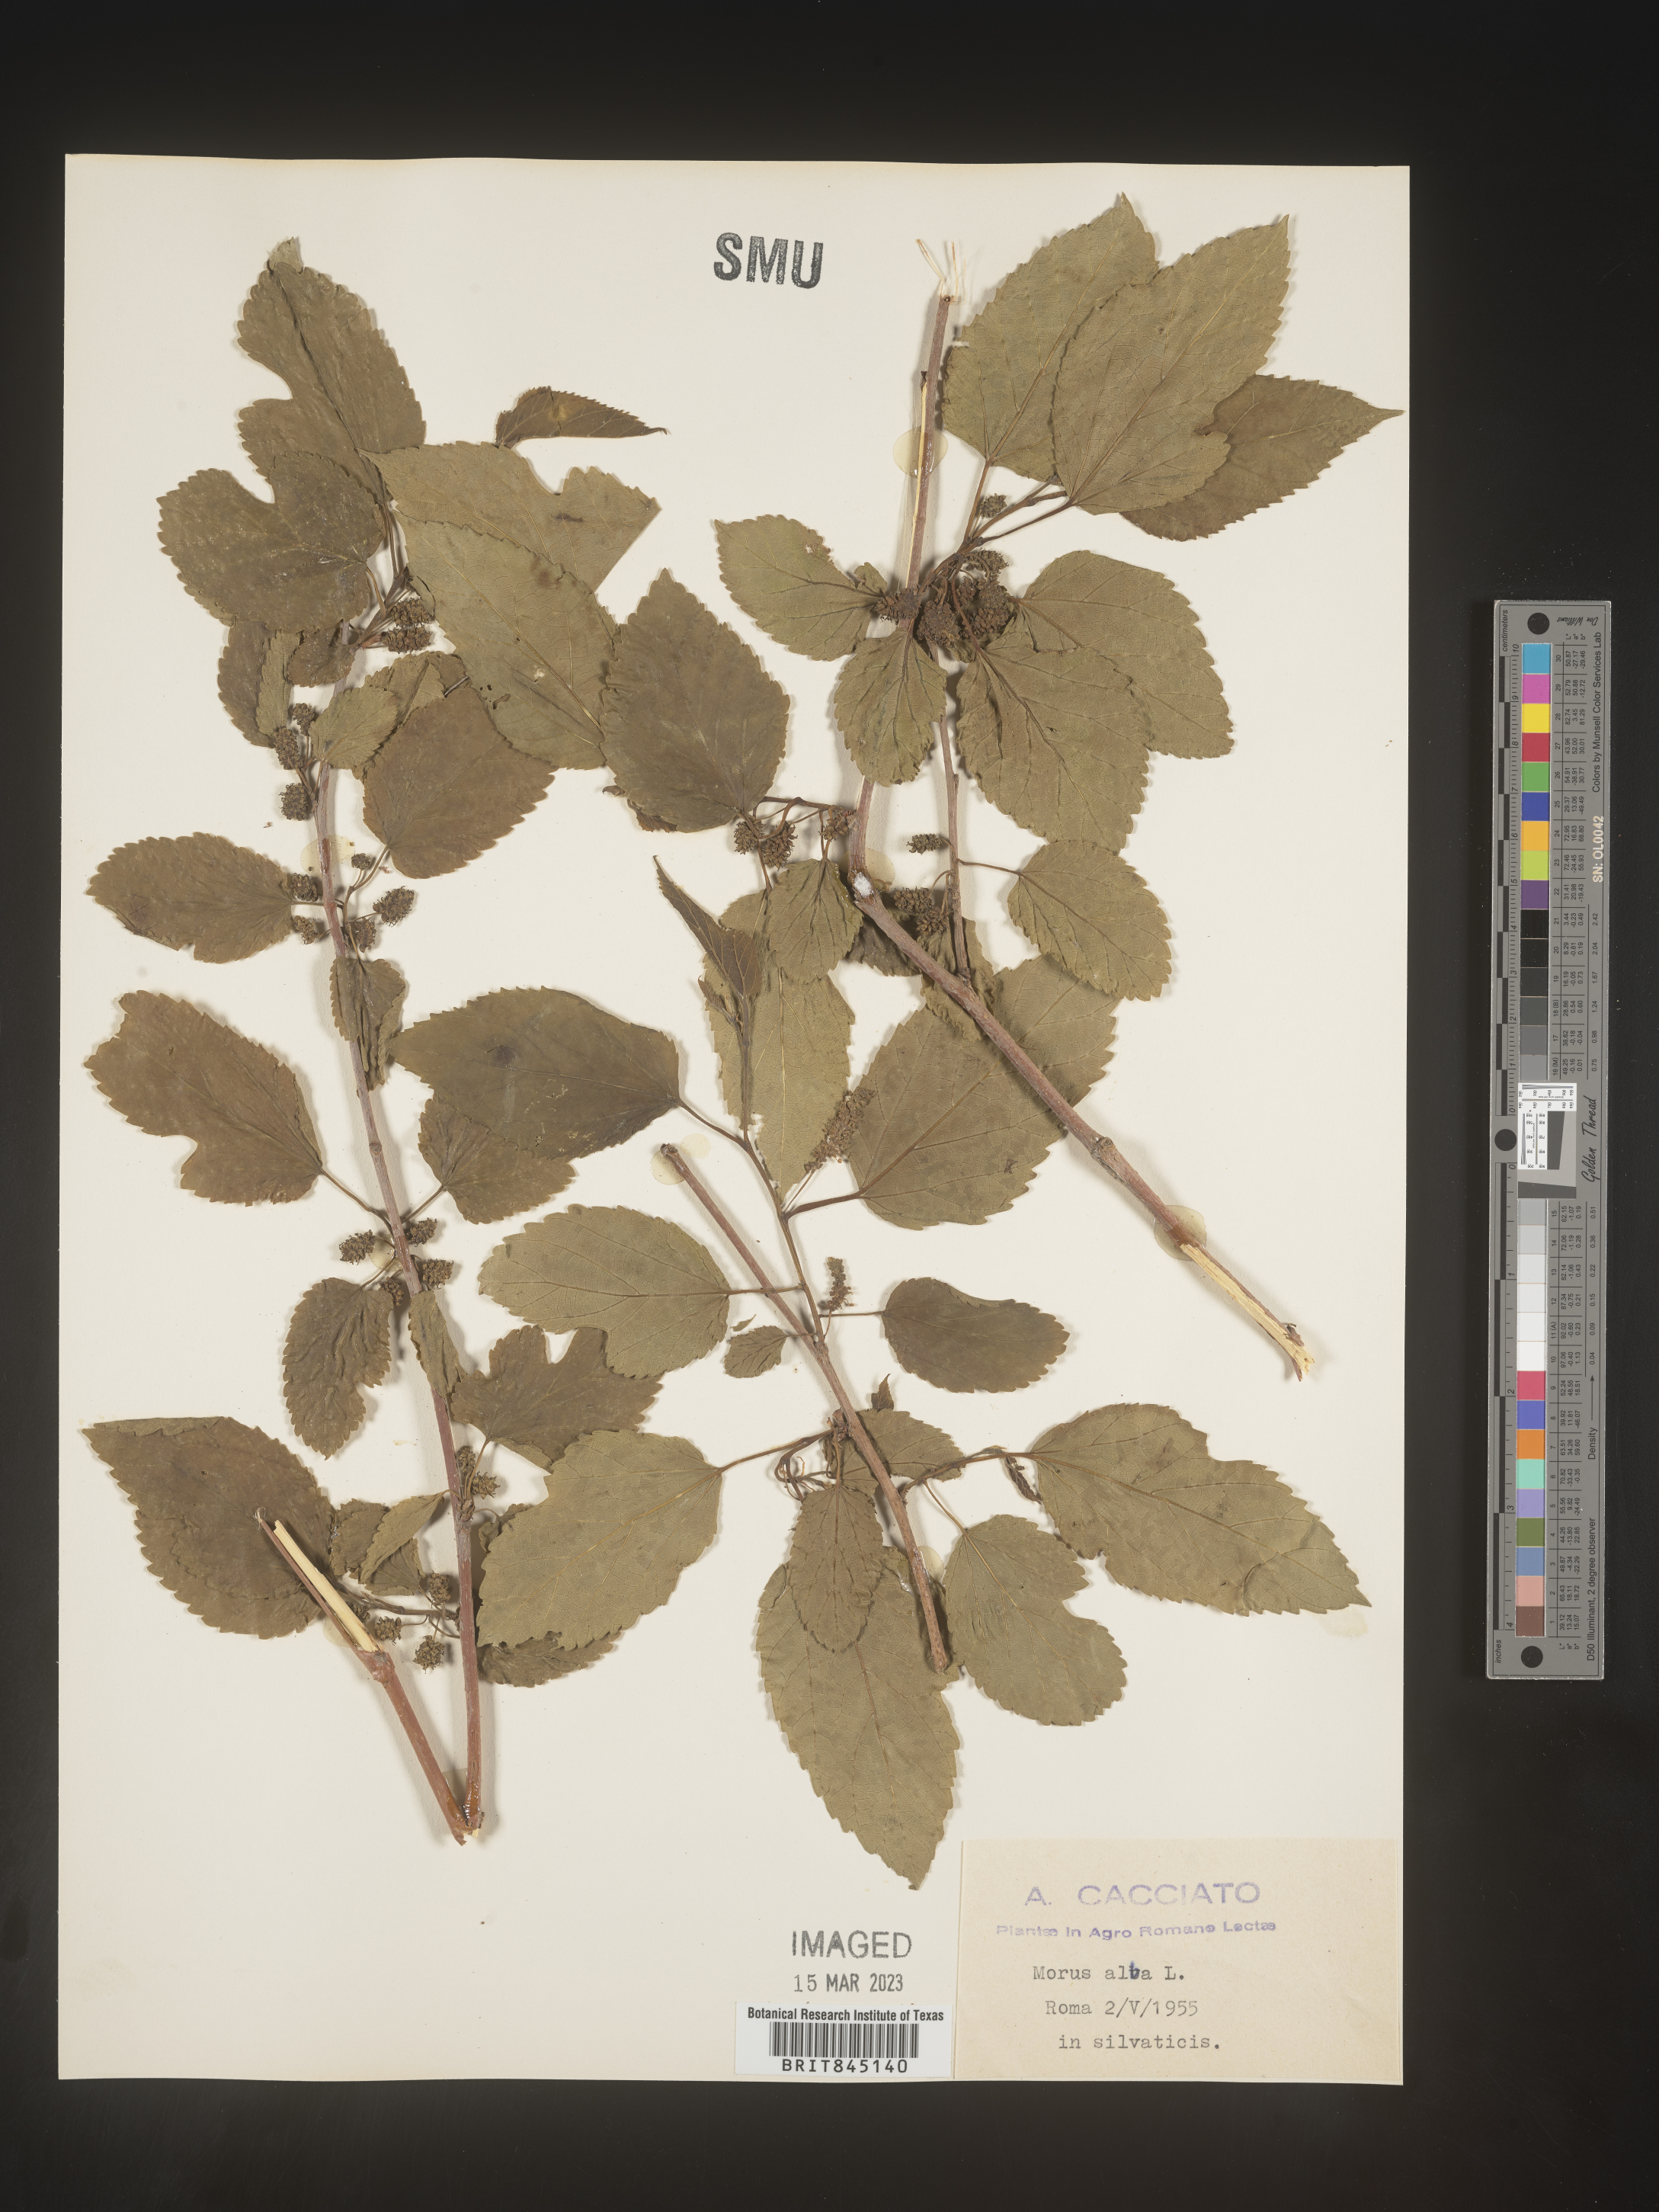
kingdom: Plantae
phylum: Tracheophyta
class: Magnoliopsida
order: Rosales
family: Moraceae
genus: Morus
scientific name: Morus alba
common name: White mulberry
